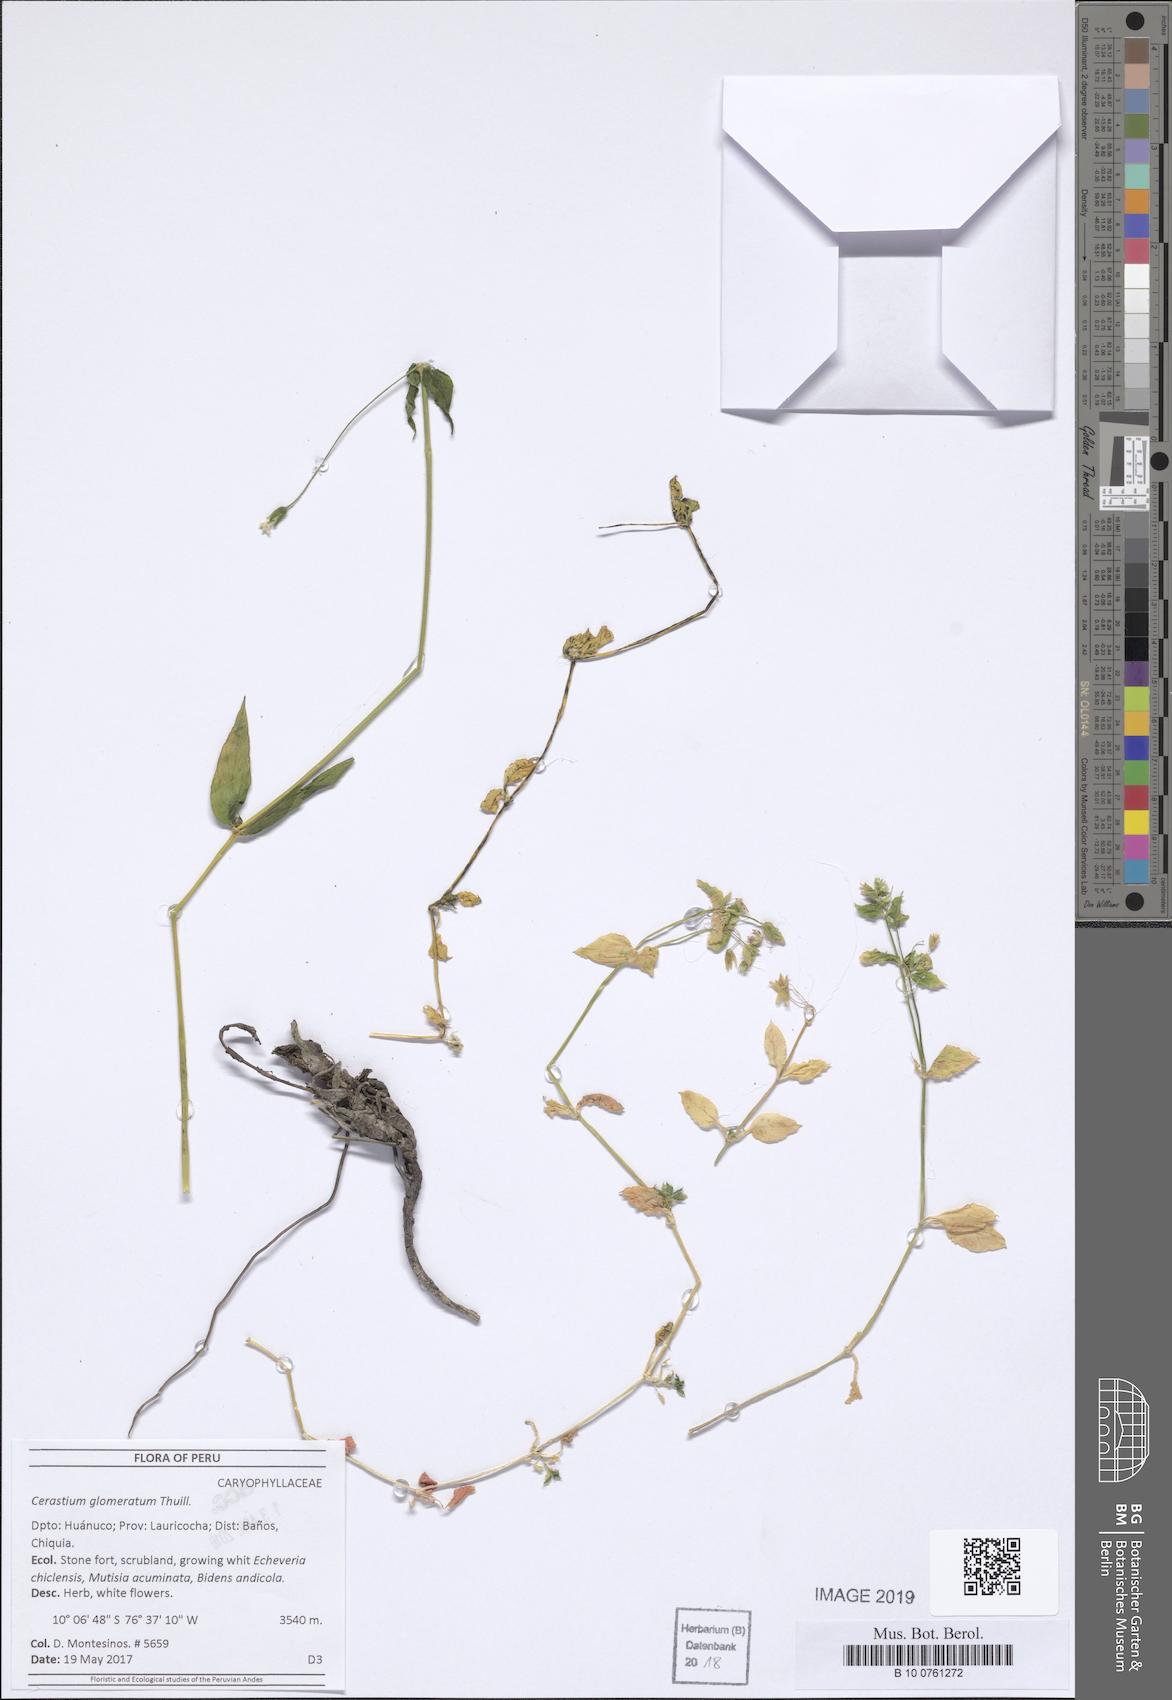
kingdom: Plantae
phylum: Tracheophyta
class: Magnoliopsida
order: Caryophyllales
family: Caryophyllaceae
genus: Cerastium
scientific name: Cerastium glomeratum
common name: Sticky chickweed
